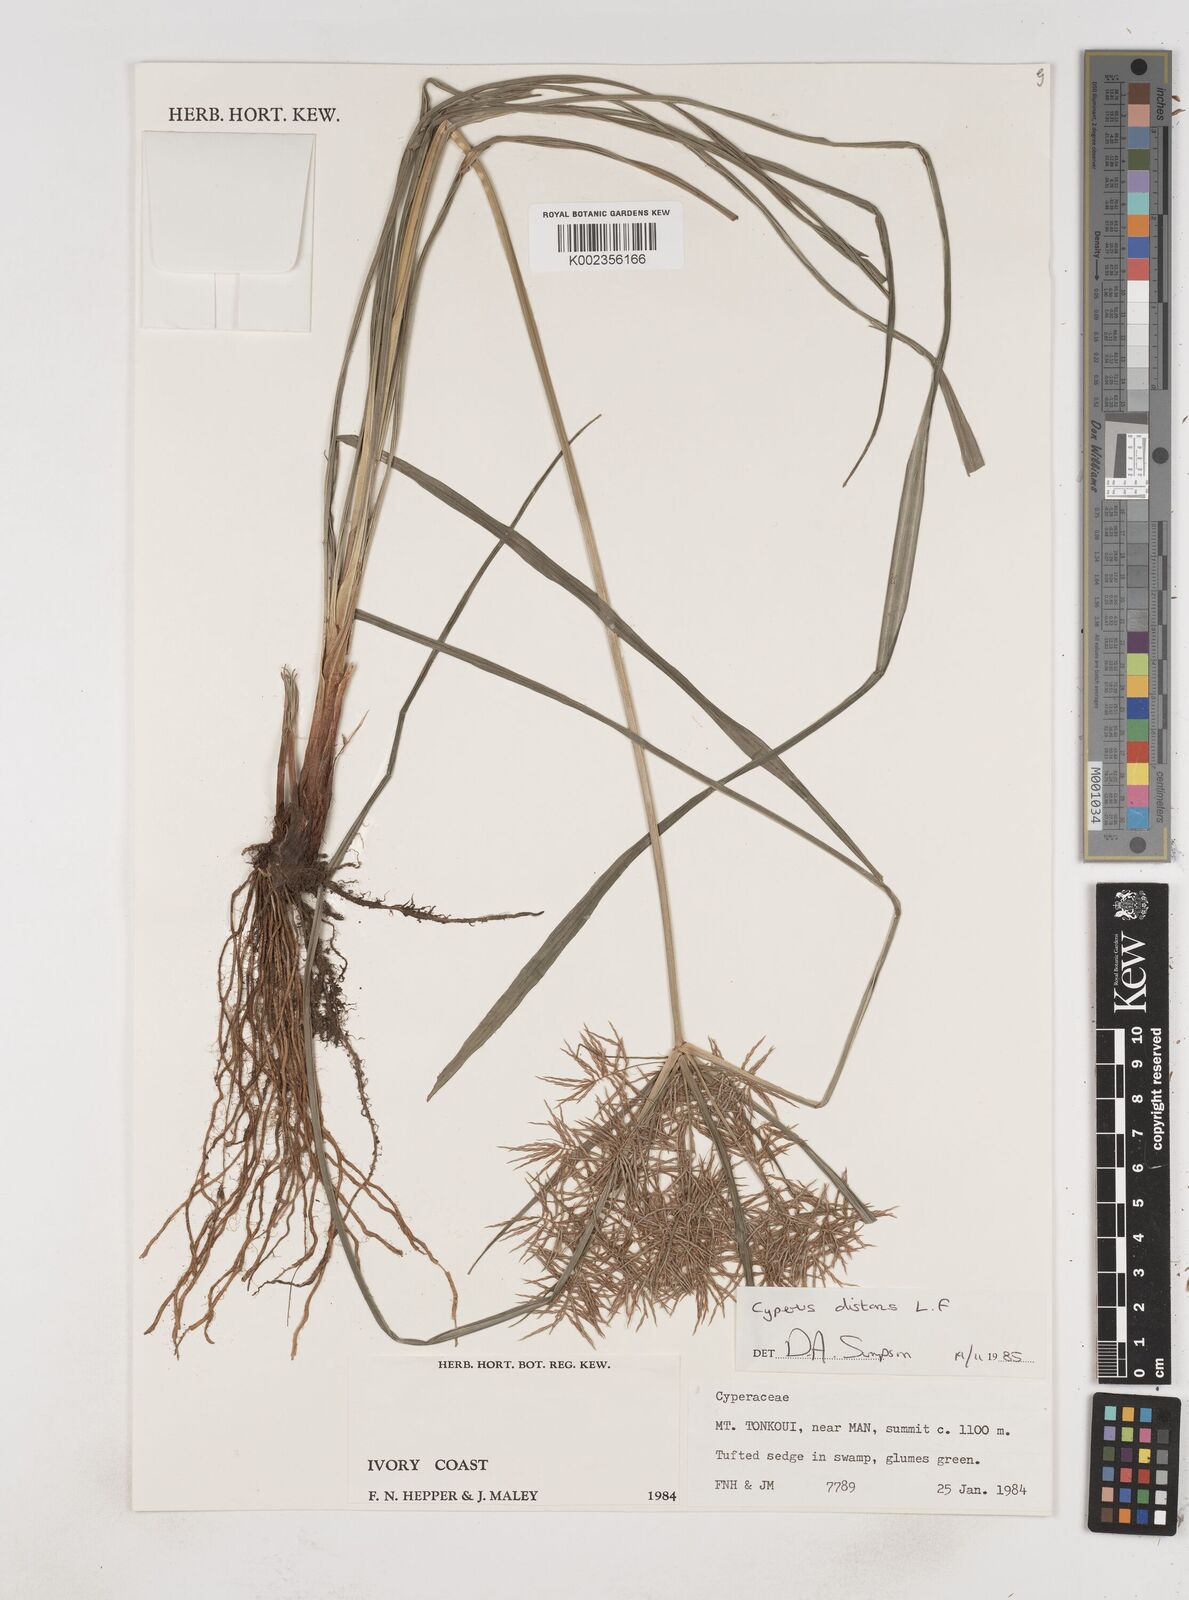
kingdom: Plantae
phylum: Tracheophyta
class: Liliopsida
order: Poales
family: Cyperaceae
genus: Cyperus
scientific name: Cyperus distans
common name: Slender cyperus
